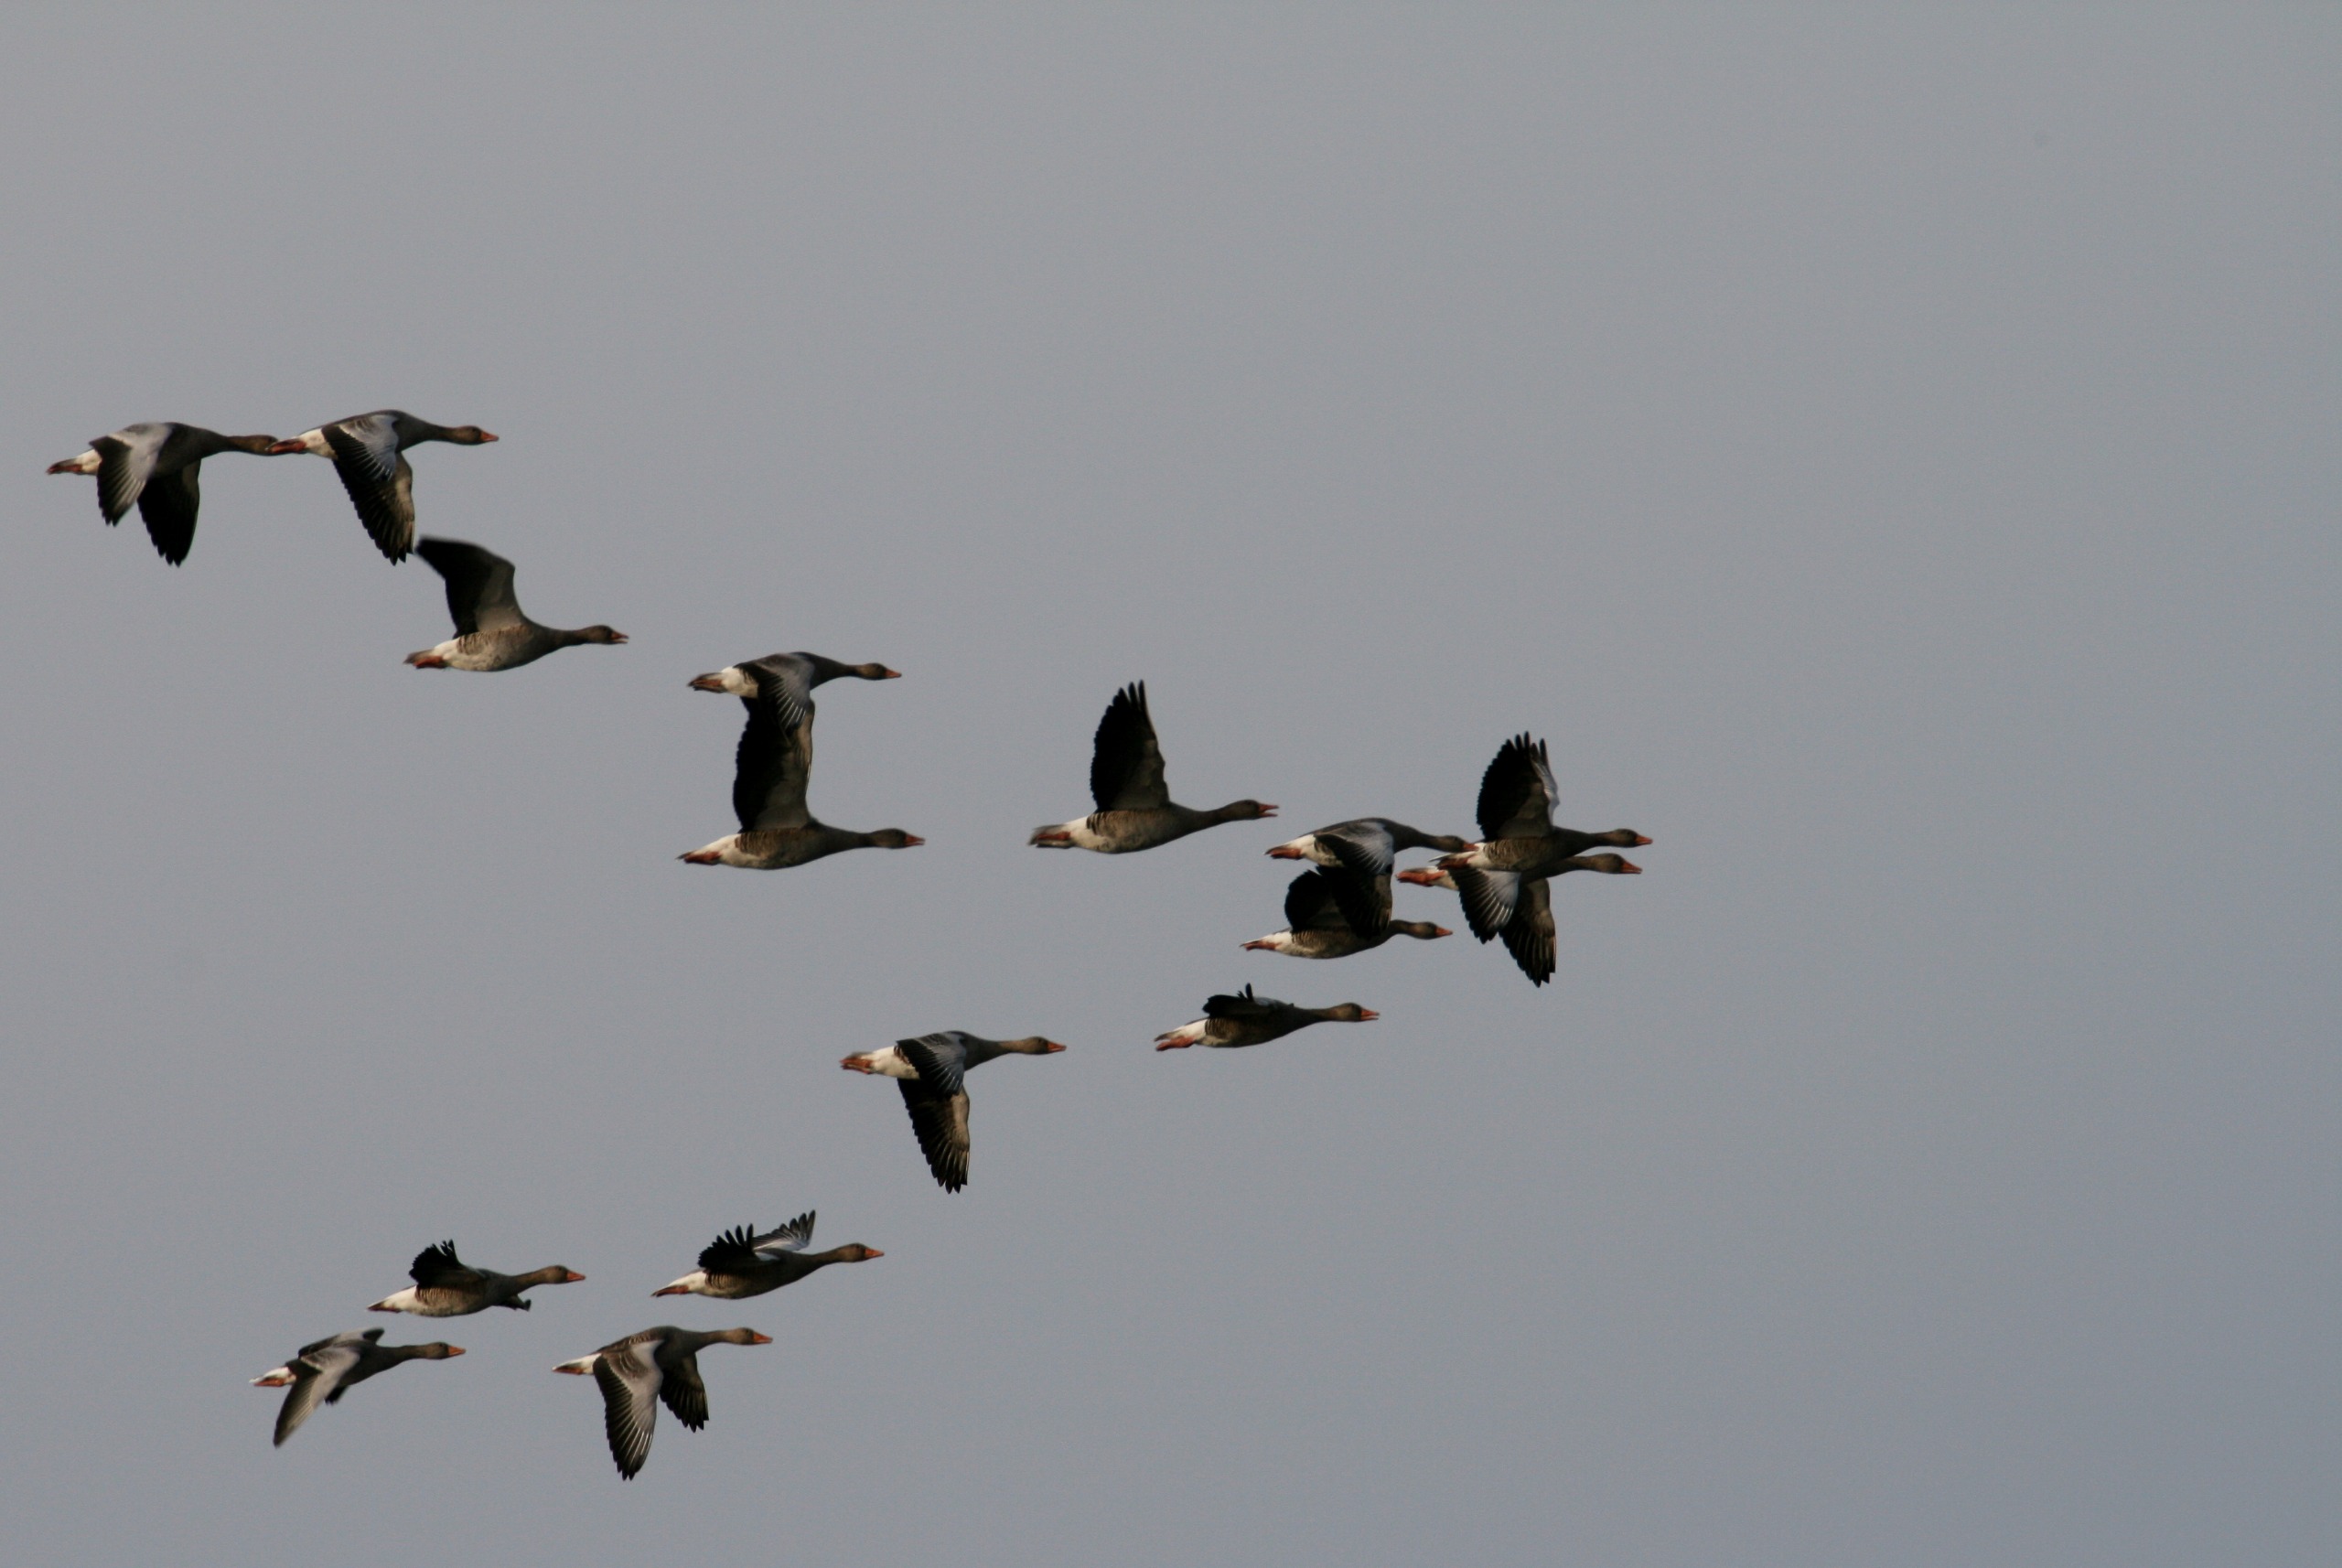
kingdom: Animalia
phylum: Chordata
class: Aves
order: Anseriformes
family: Anatidae
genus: Anser
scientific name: Anser anser
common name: Grågås
